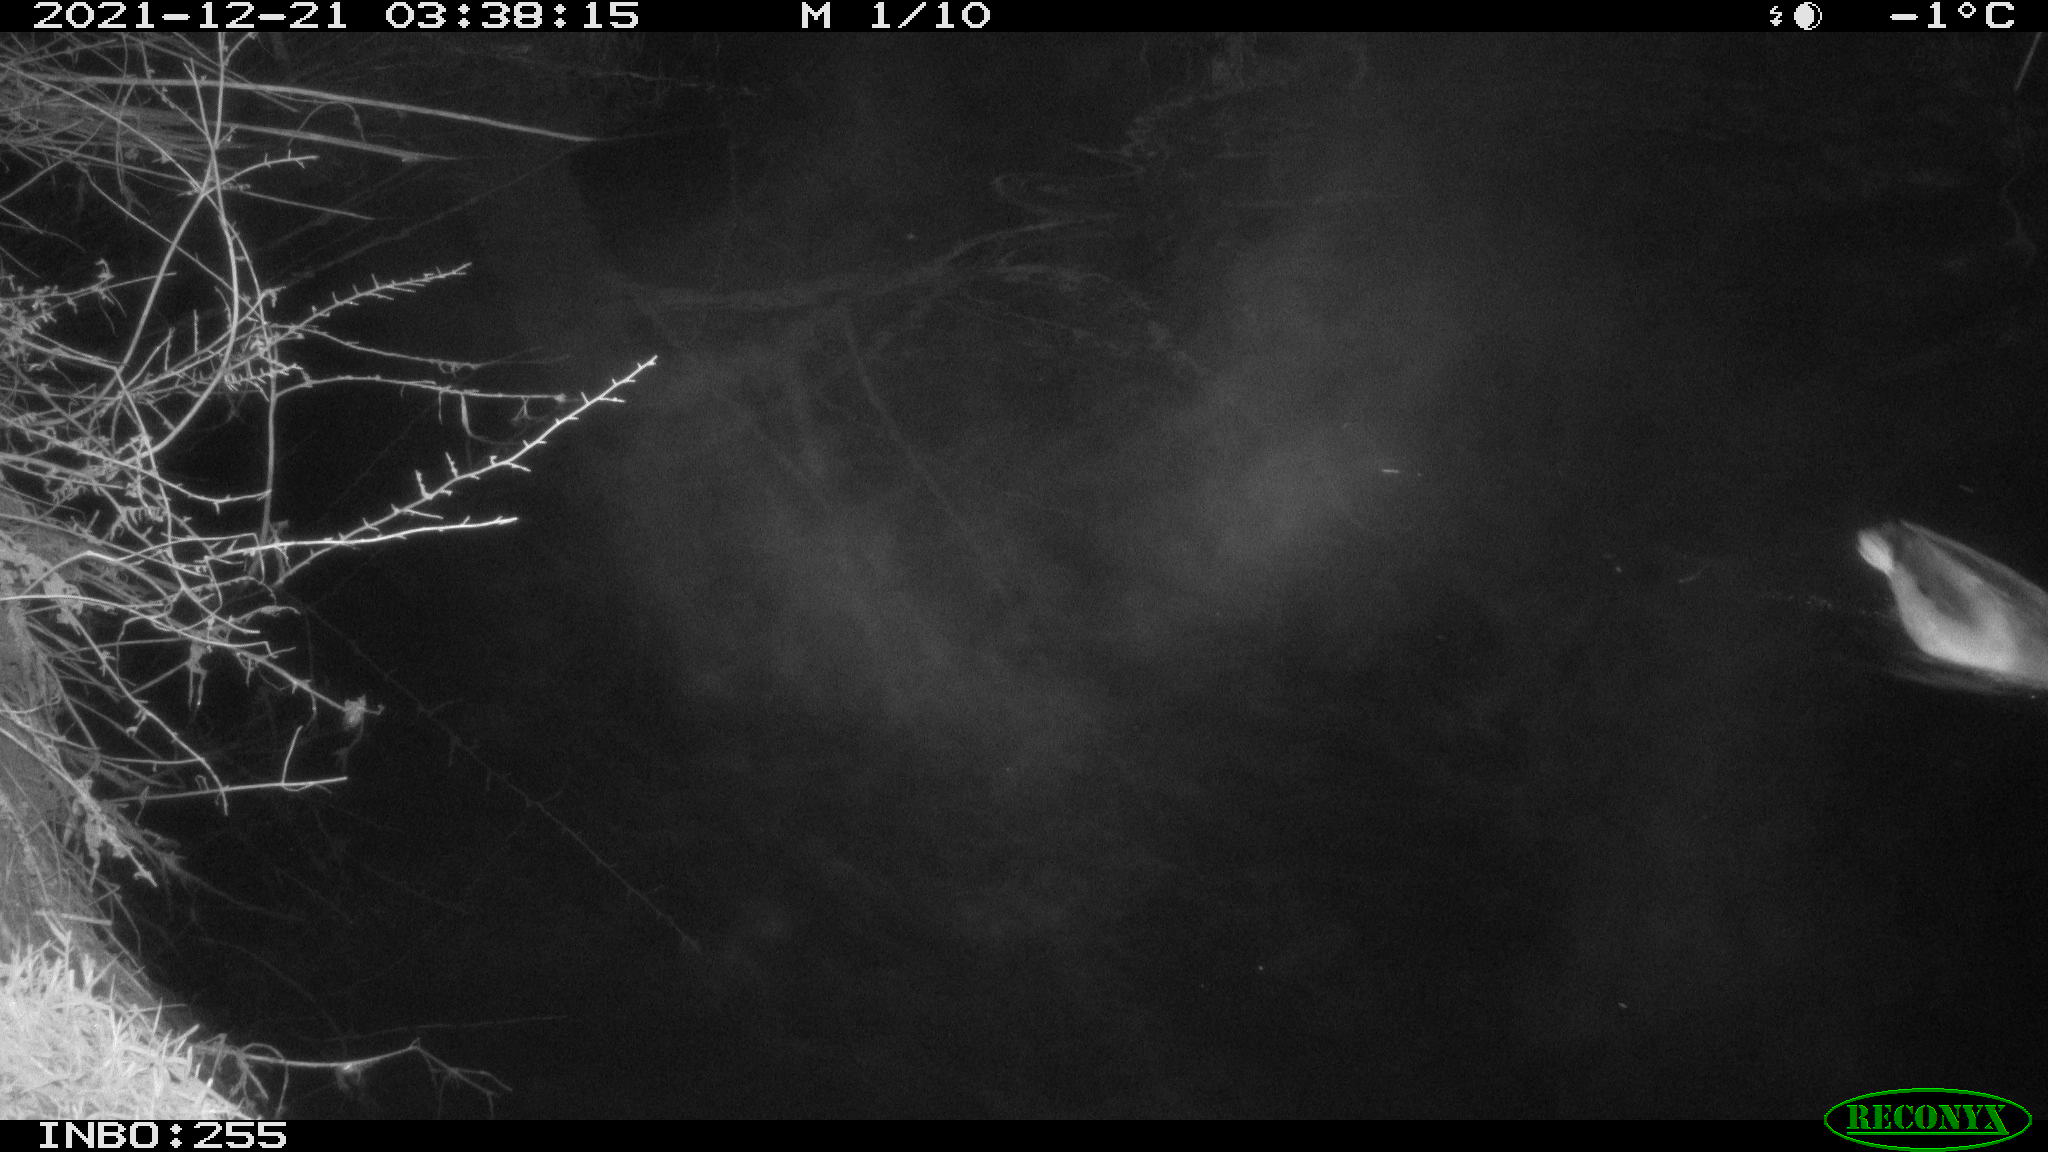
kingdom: Animalia
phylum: Chordata
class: Aves
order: Anseriformes
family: Anatidae
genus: Anas
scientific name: Anas
